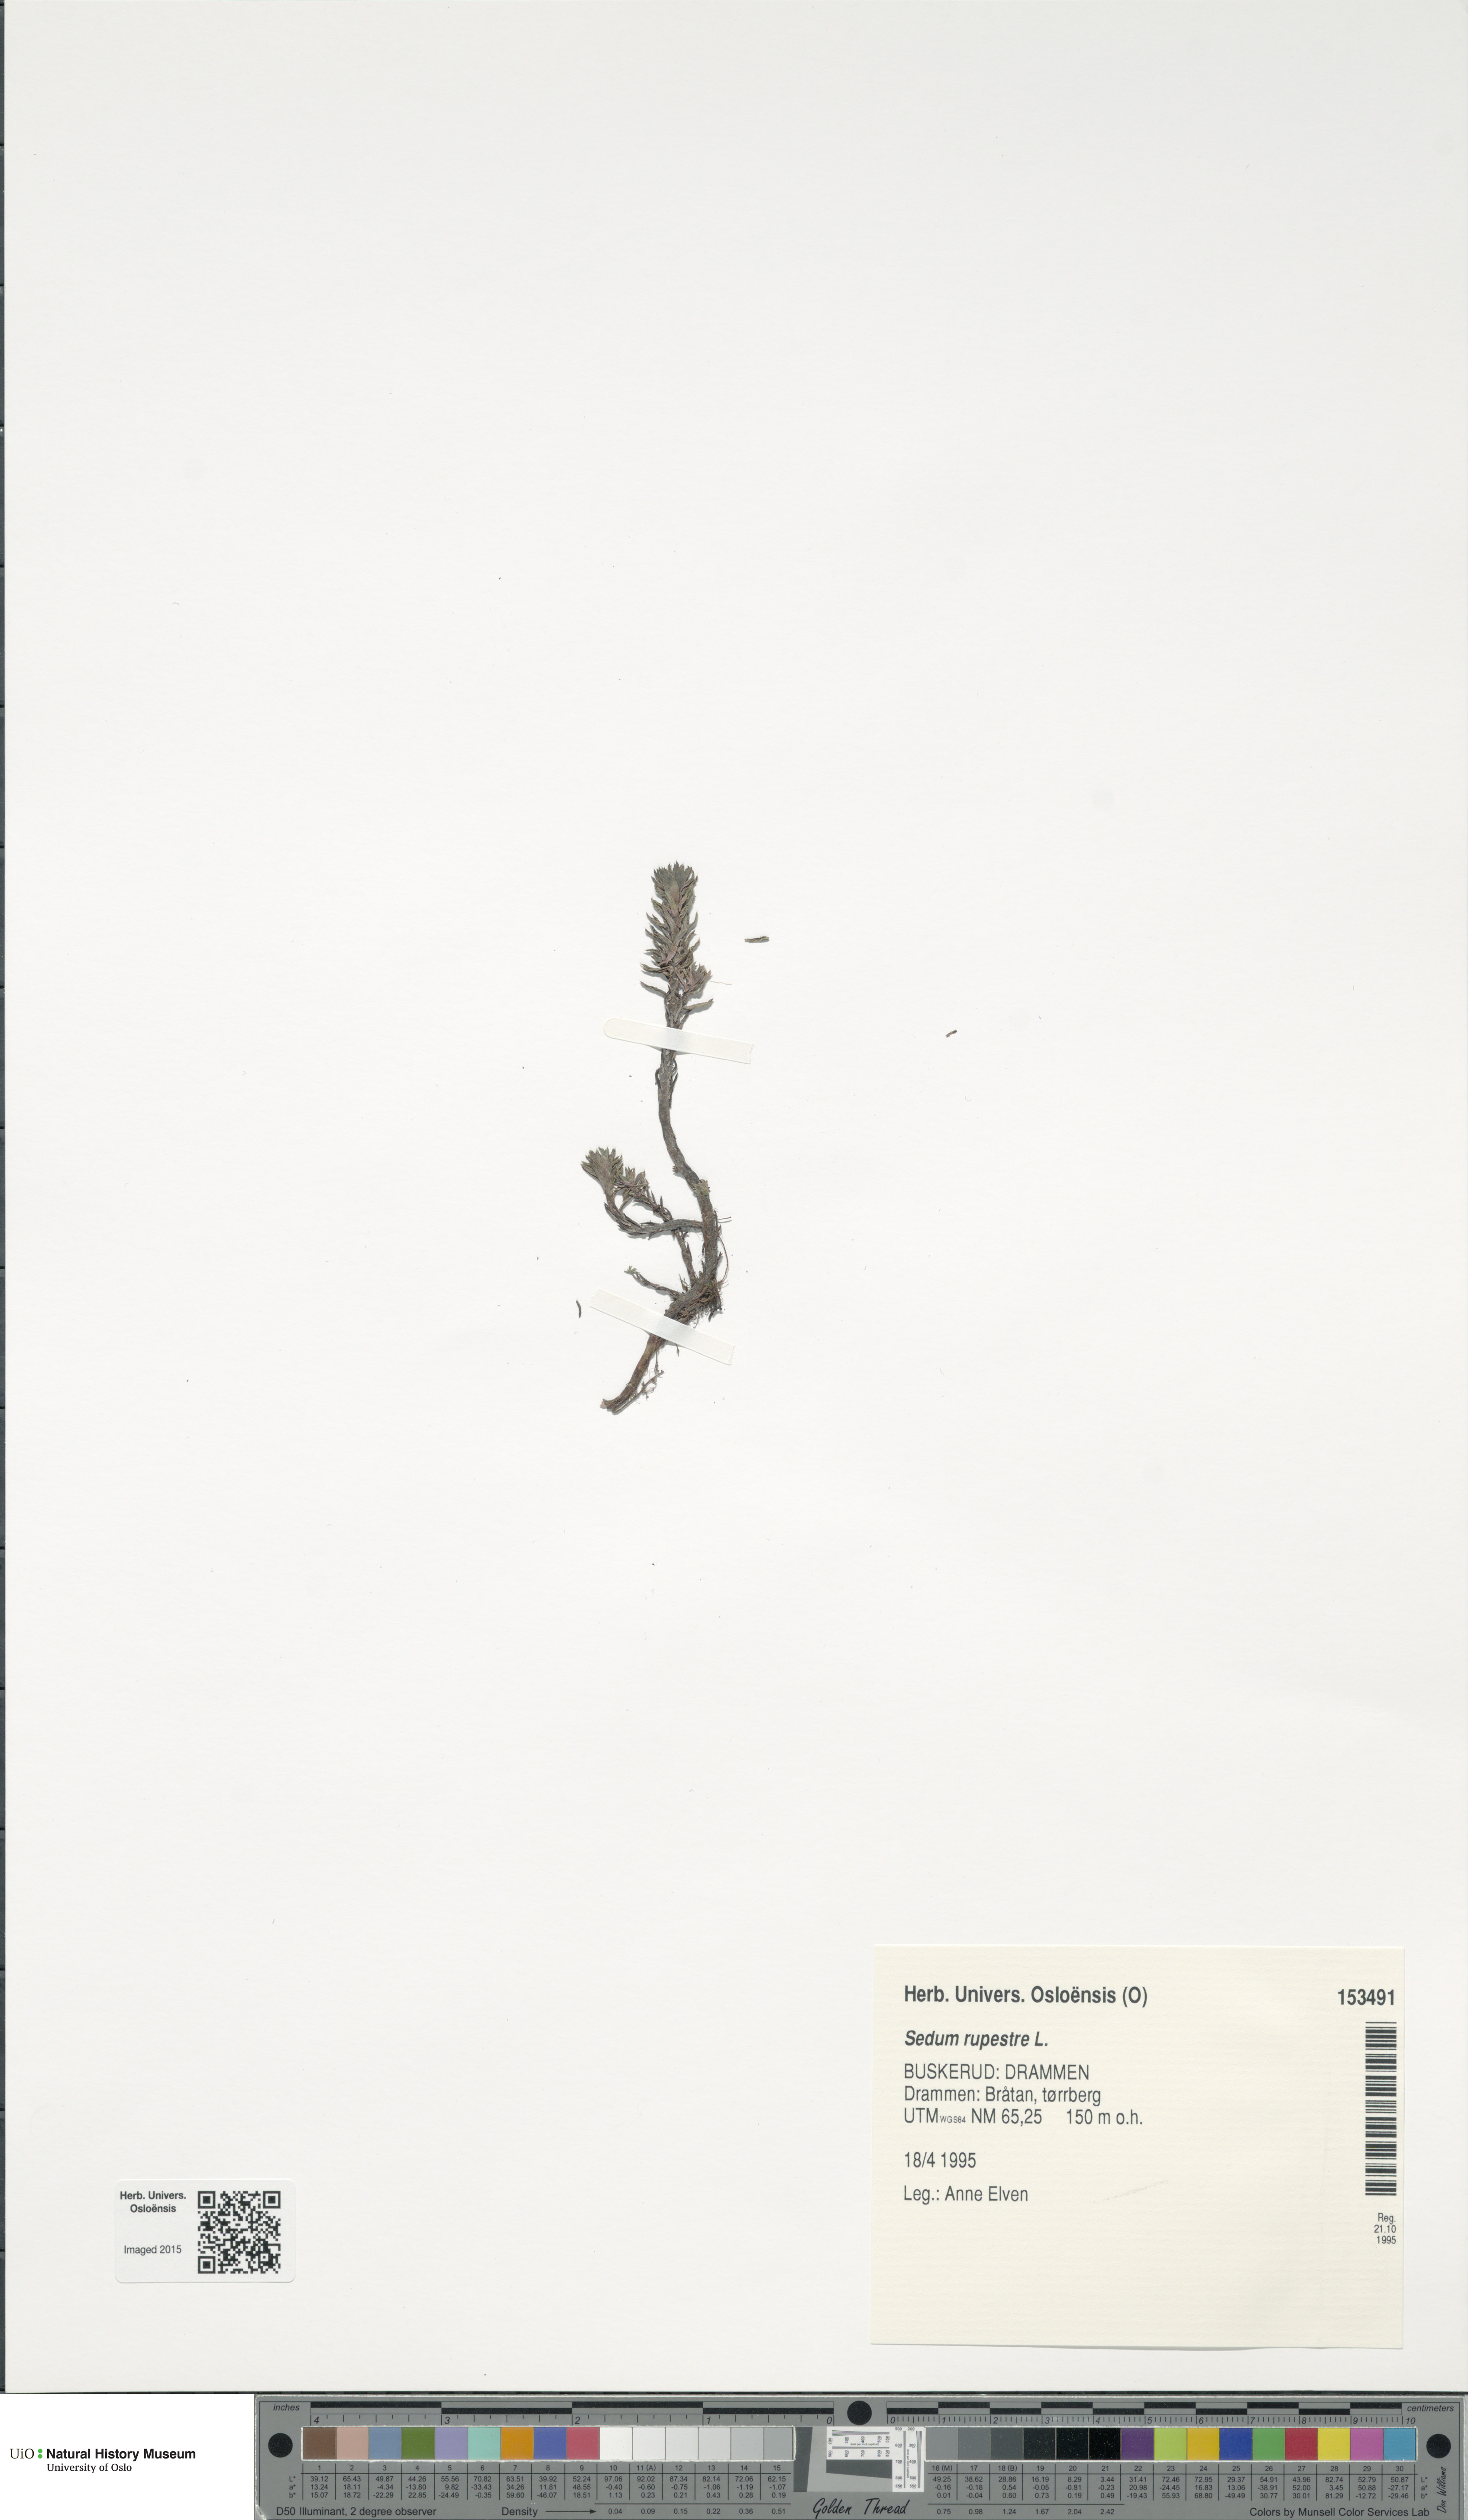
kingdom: Plantae
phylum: Tracheophyta
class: Magnoliopsida
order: Saxifragales
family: Crassulaceae
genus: Petrosedum
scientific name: Petrosedum rupestre
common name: Jenny's stonecrop
